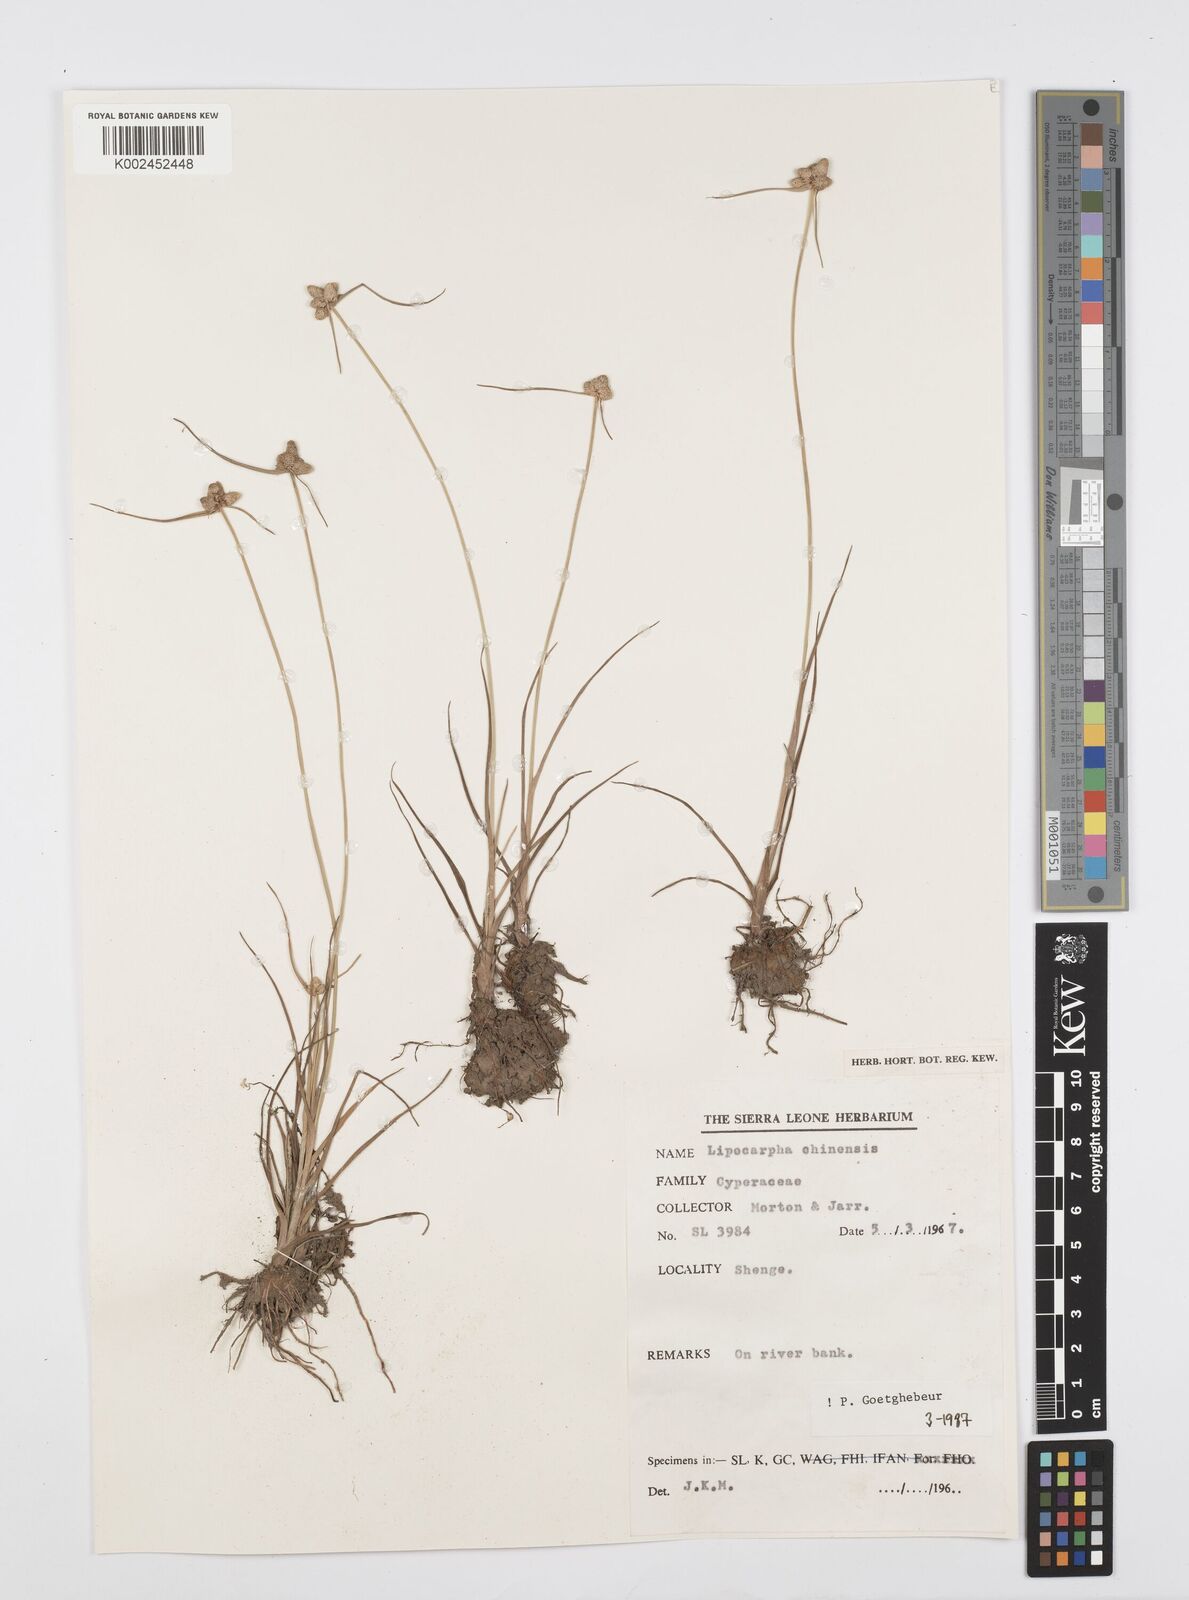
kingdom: Plantae
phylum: Tracheophyta
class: Liliopsida
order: Poales
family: Cyperaceae
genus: Cyperus
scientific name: Cyperus albescens
